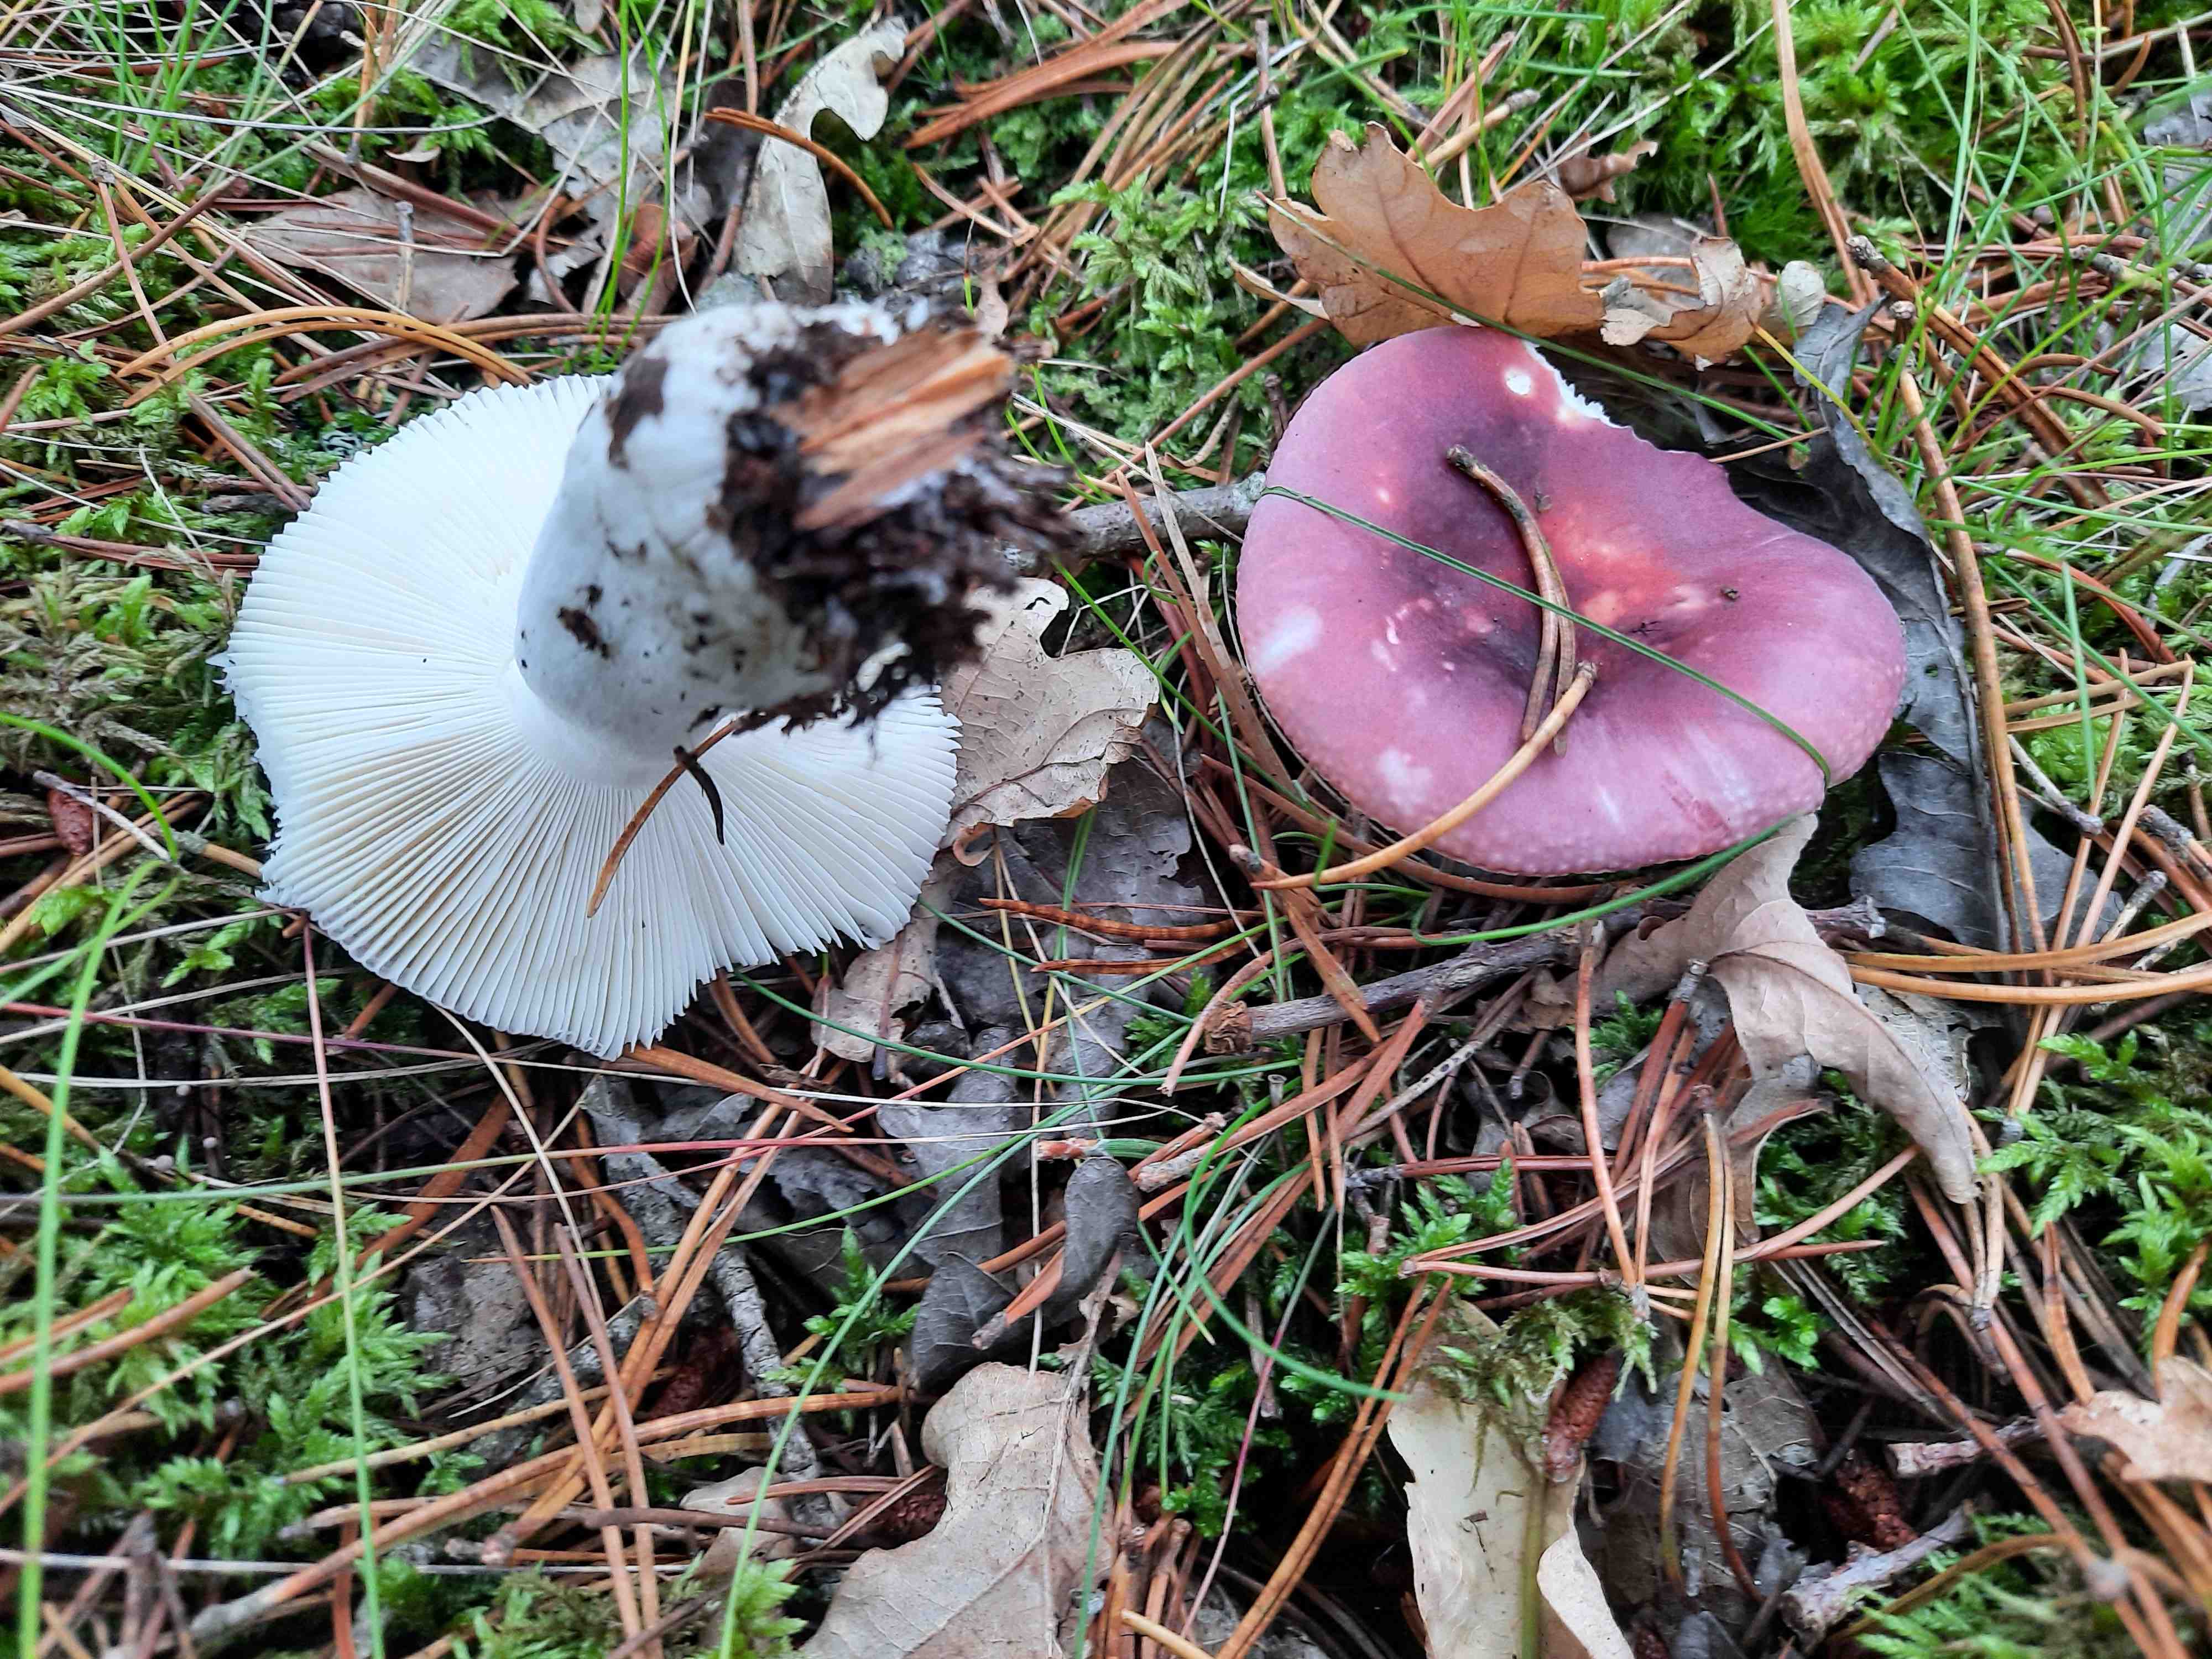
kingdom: Fungi
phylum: Basidiomycota
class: Agaricomycetes
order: Russulales
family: Russulaceae
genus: Russula
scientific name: Russula atrorubens
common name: sortrød skørhat
